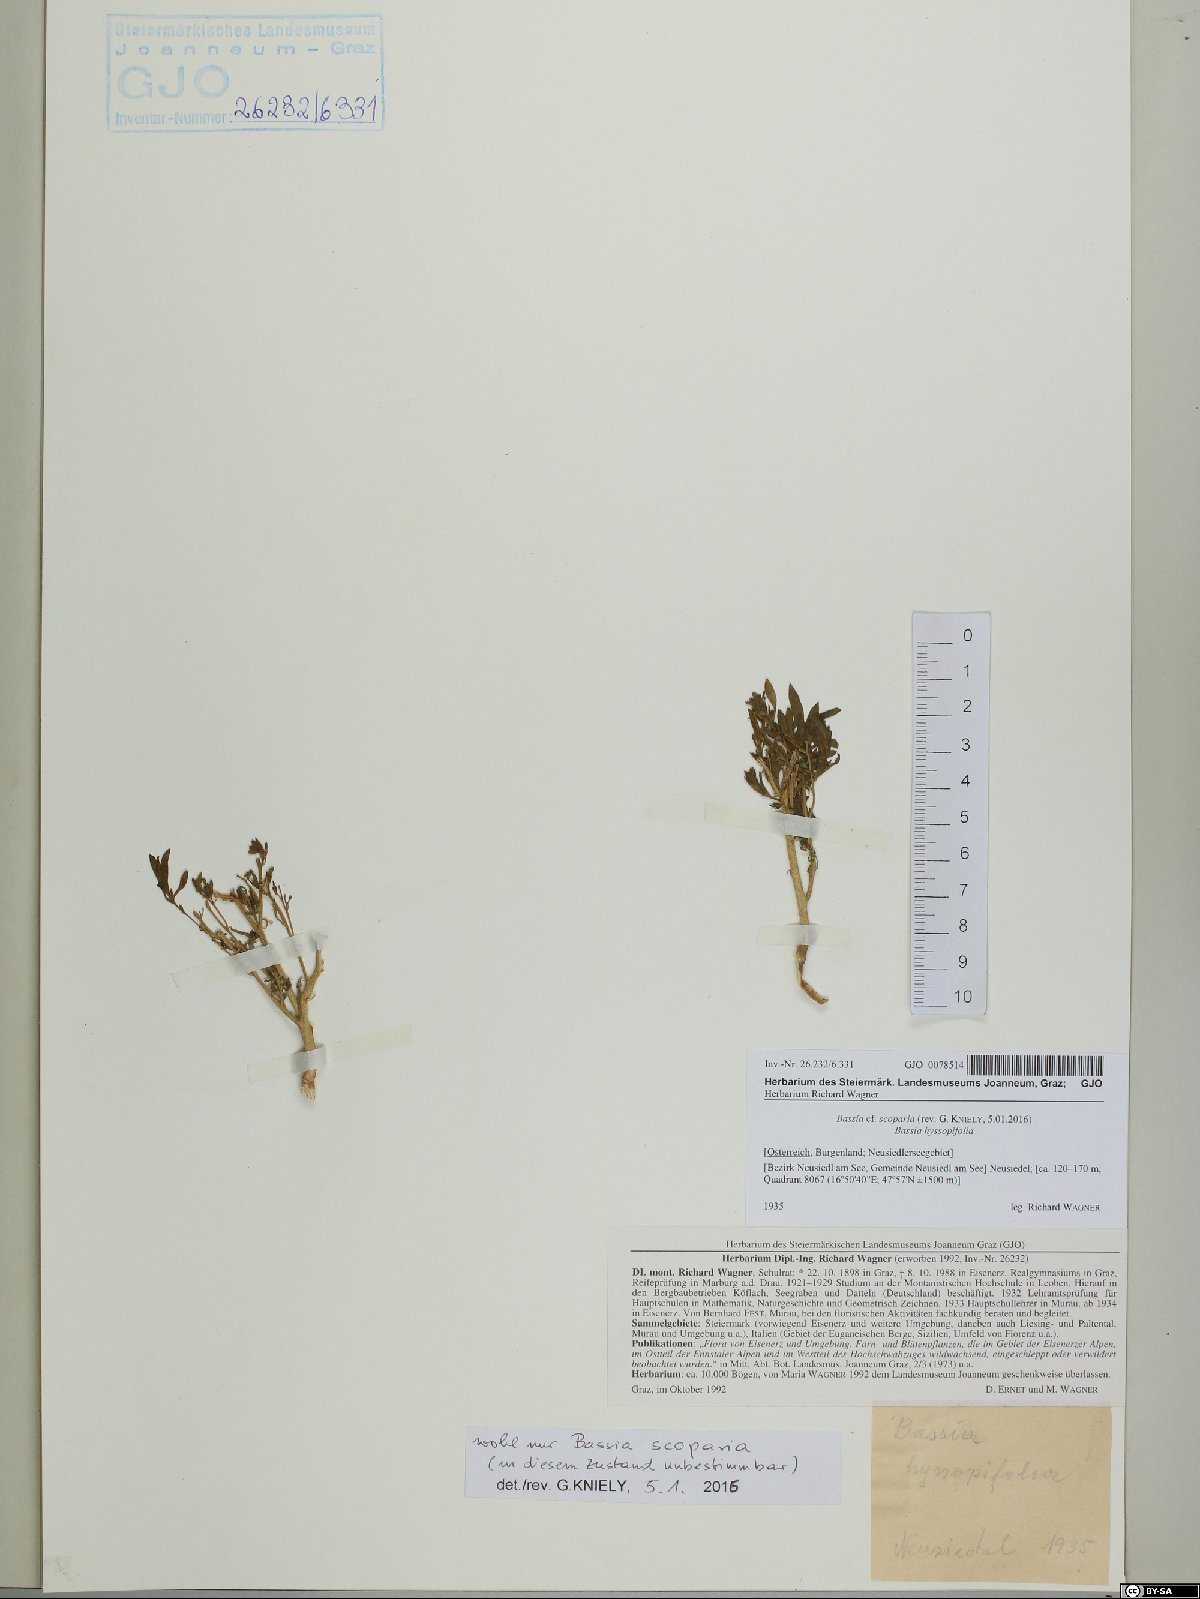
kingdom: Plantae
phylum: Tracheophyta
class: Magnoliopsida
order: Caryophyllales
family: Amaranthaceae
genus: Bassia
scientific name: Bassia scoparia
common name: Belvedere
